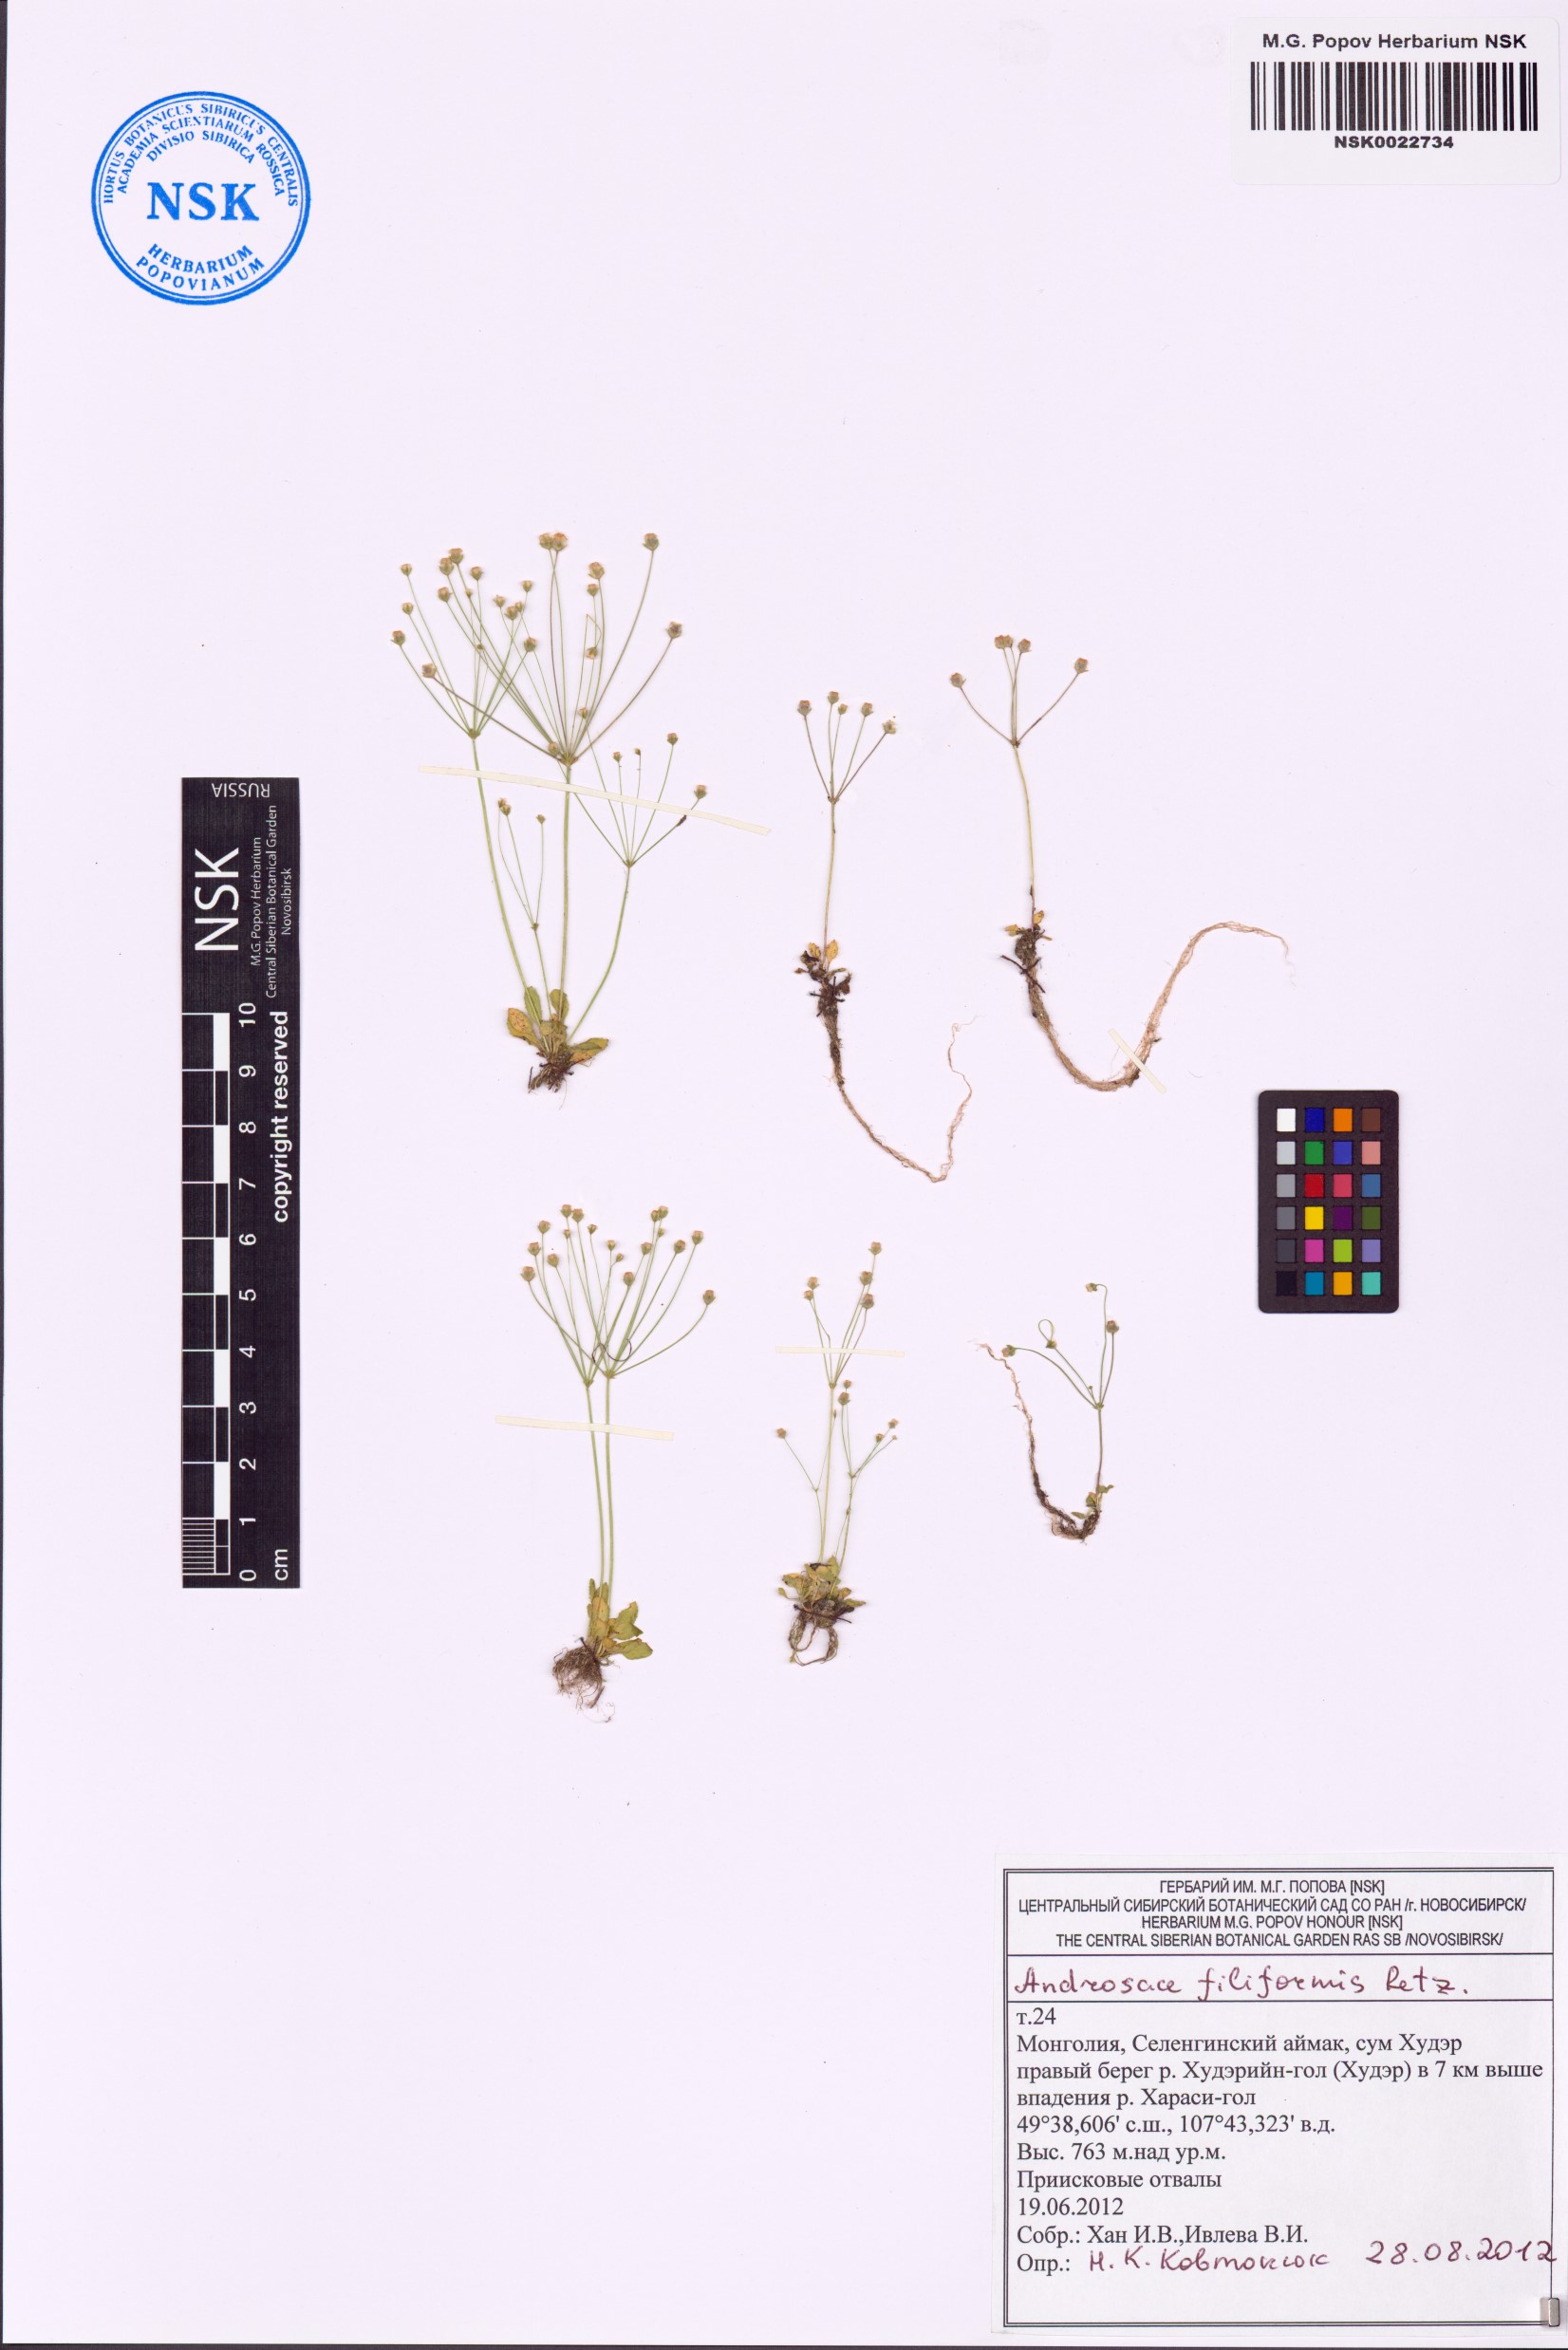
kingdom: Plantae
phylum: Tracheophyta
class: Magnoliopsida
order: Ericales
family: Primulaceae
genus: Androsace
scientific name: Androsace filiformis
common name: Filiform rock jasmine
